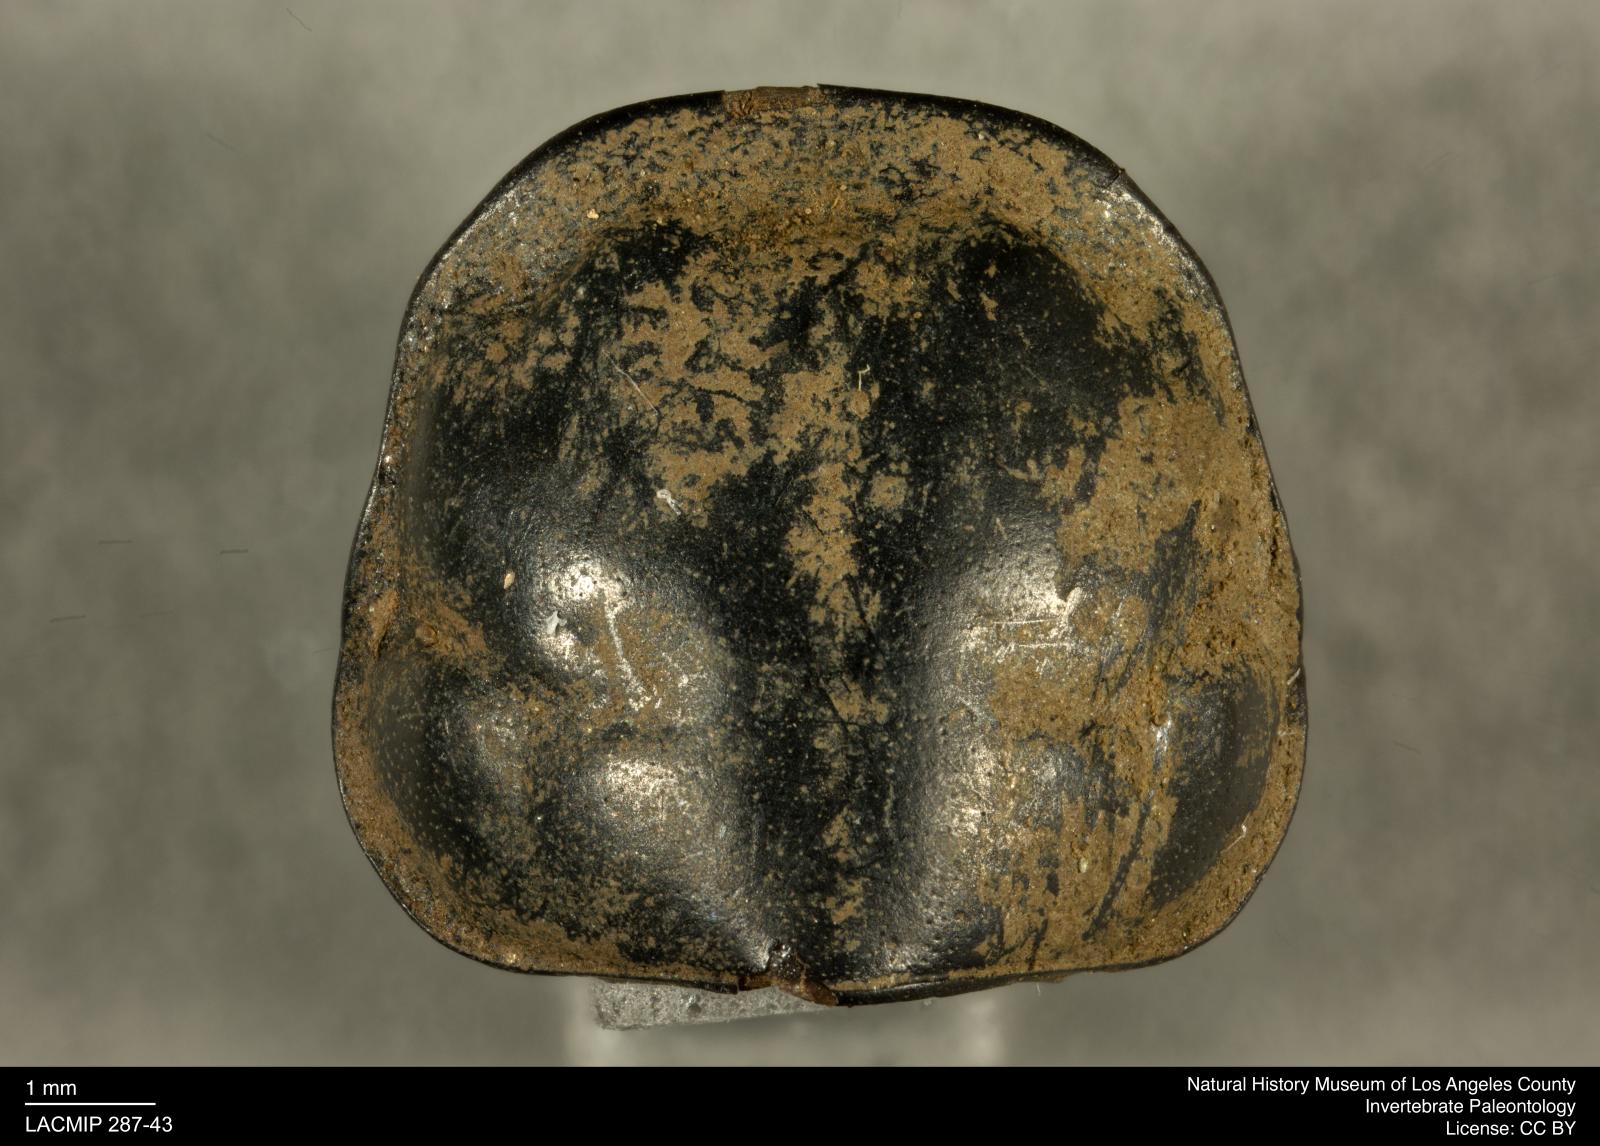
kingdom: Animalia
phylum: Arthropoda
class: Insecta
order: Coleoptera
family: Staphylinidae
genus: Nicrophorus
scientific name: Nicrophorus marginatus
